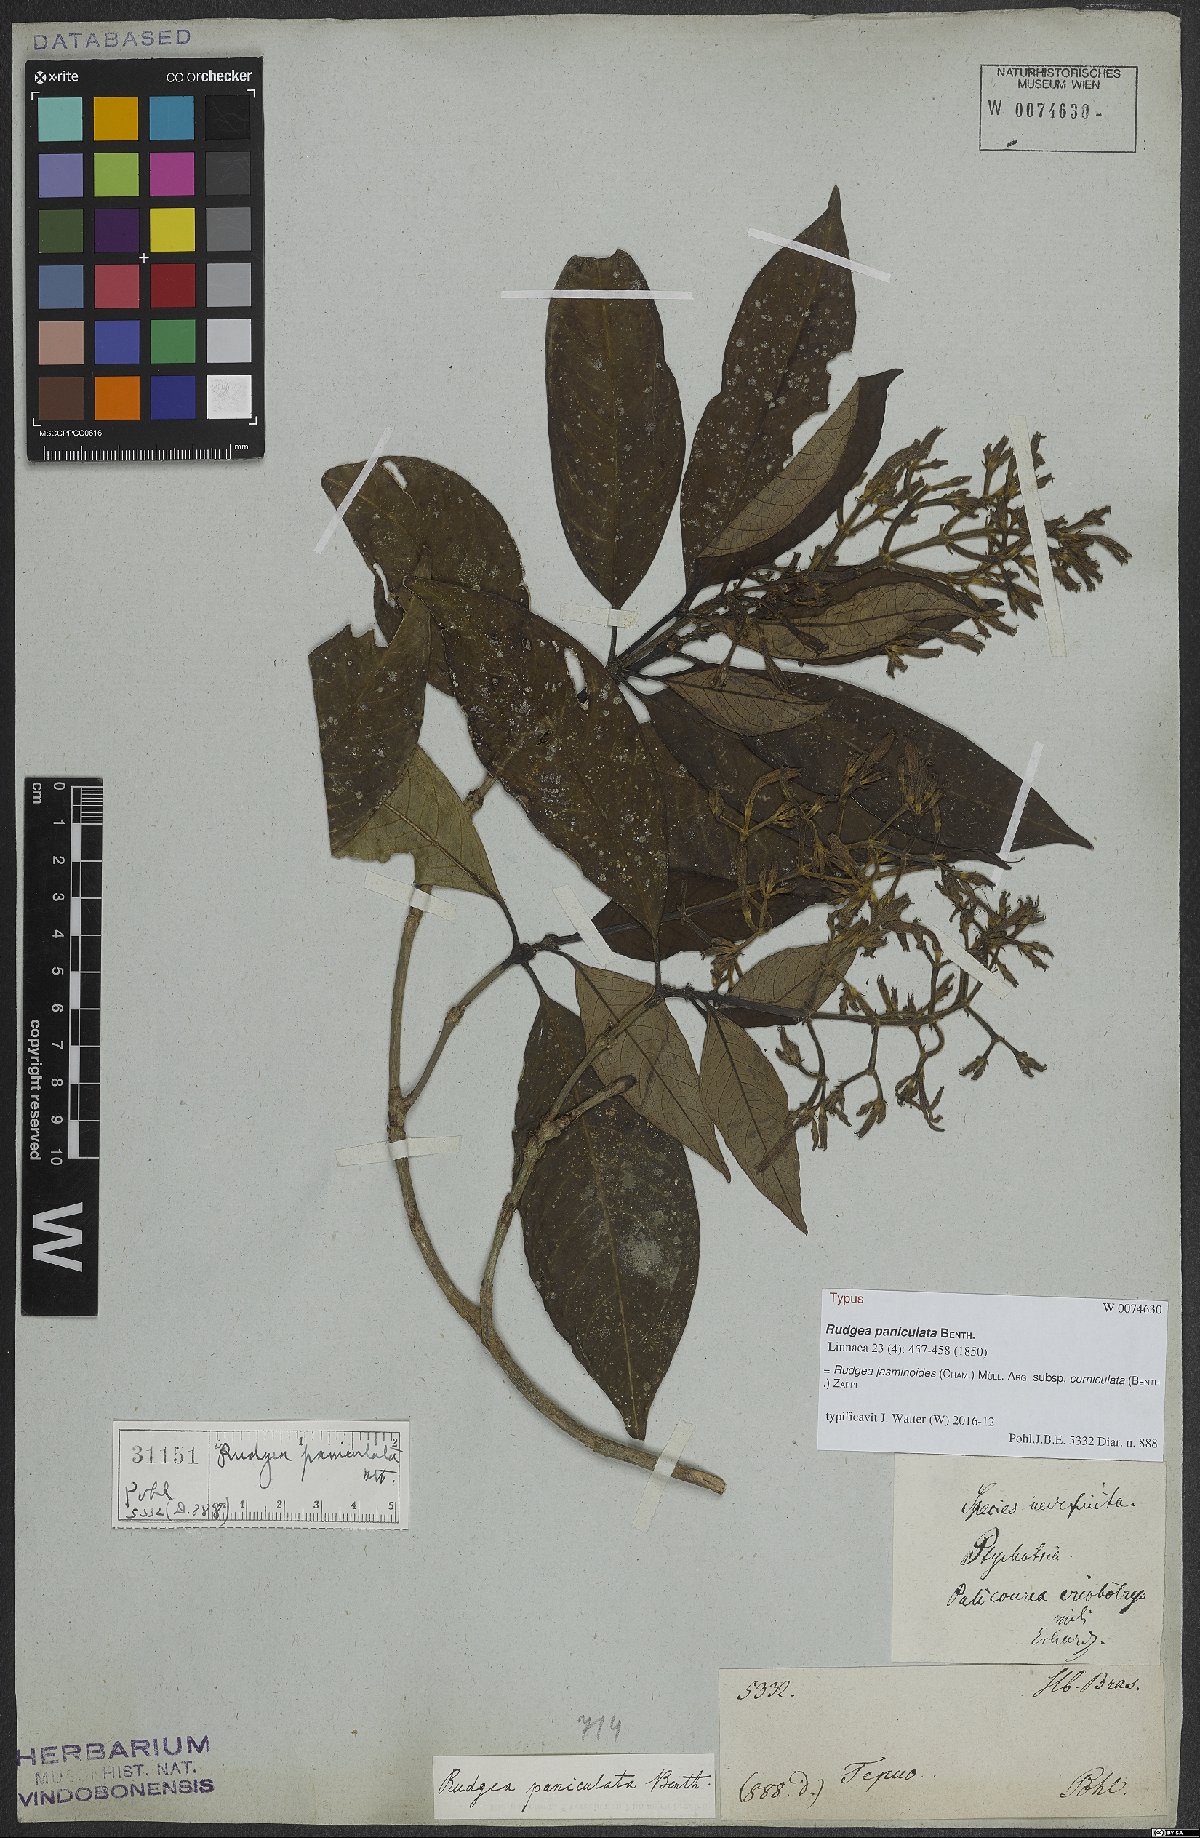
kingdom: Plantae
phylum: Tracheophyta
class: Magnoliopsida
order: Gentianales
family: Rubiaceae
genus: Rudgea
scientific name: Rudgea jasminoides
